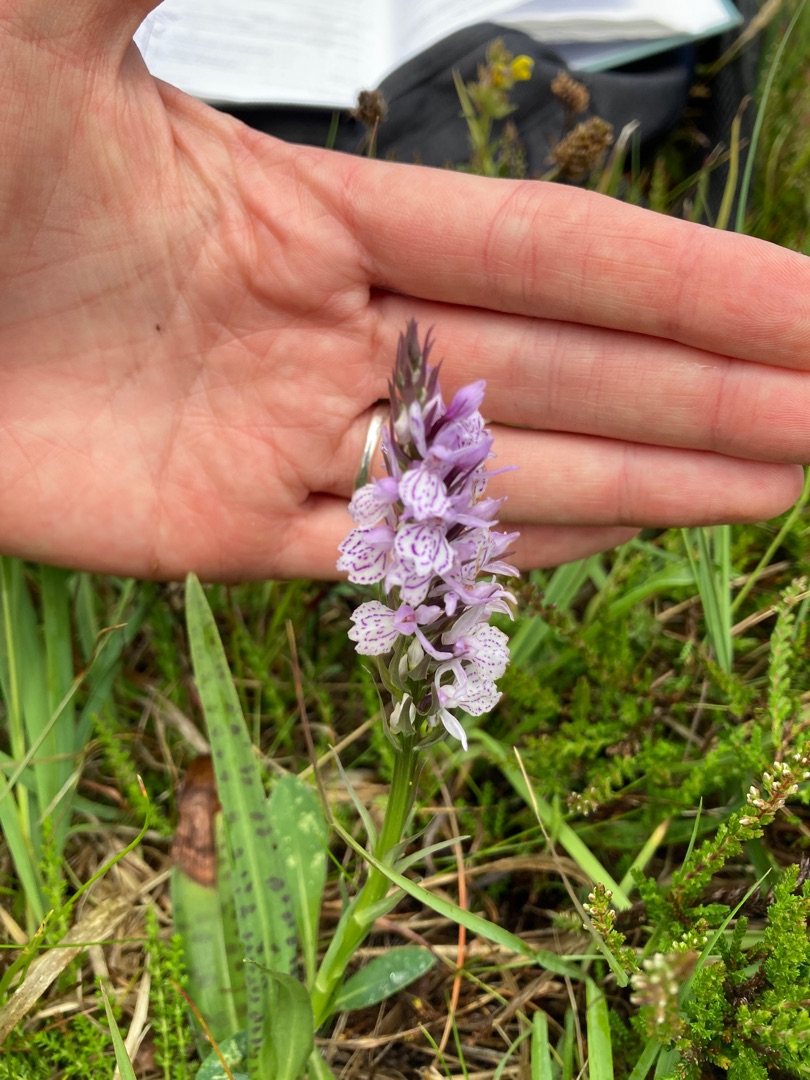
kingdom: Plantae
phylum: Tracheophyta
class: Liliopsida
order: Asparagales
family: Orchidaceae
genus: Dactylorhiza
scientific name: Dactylorhiza maculata
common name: Plettet gøgeurt (underart)
